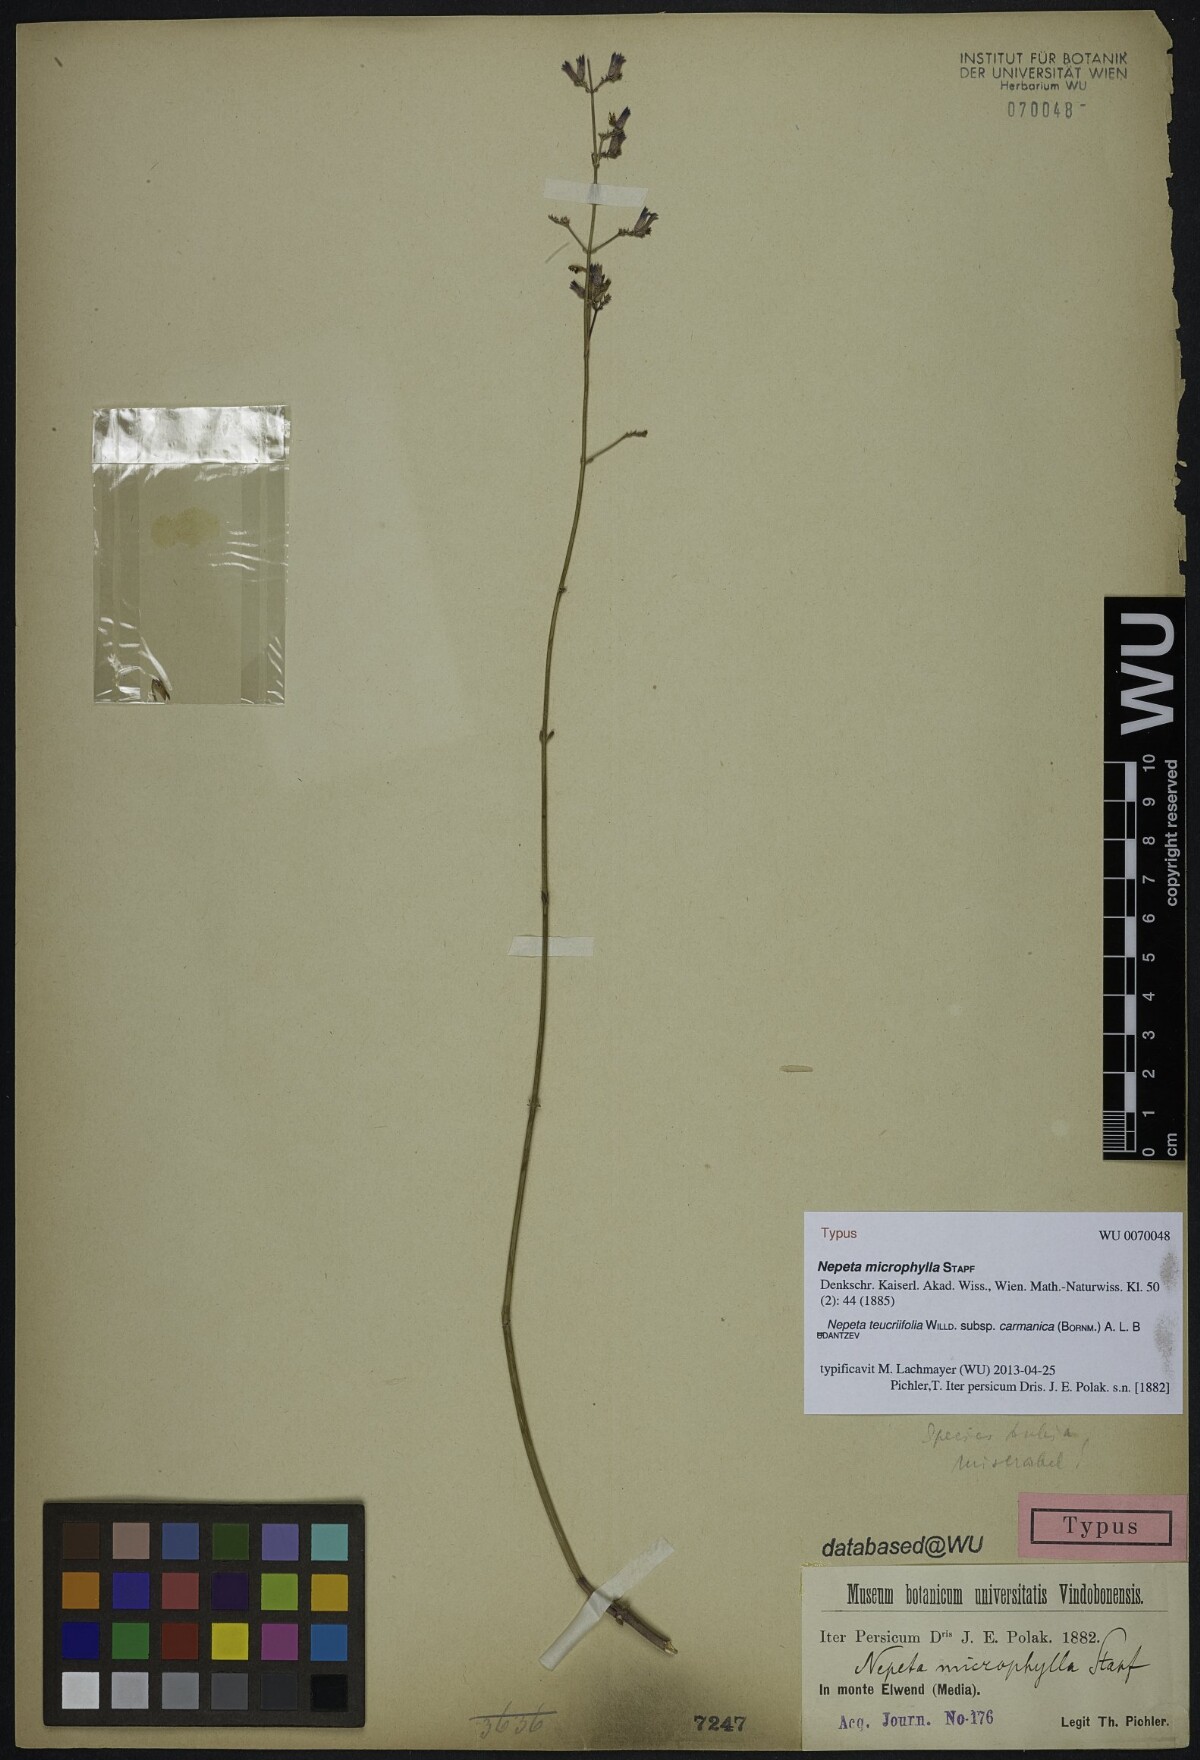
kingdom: Plantae
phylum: Tracheophyta
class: Magnoliopsida
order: Lamiales
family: Lamiaceae
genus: Nepeta
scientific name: Nepeta teucriifolia
